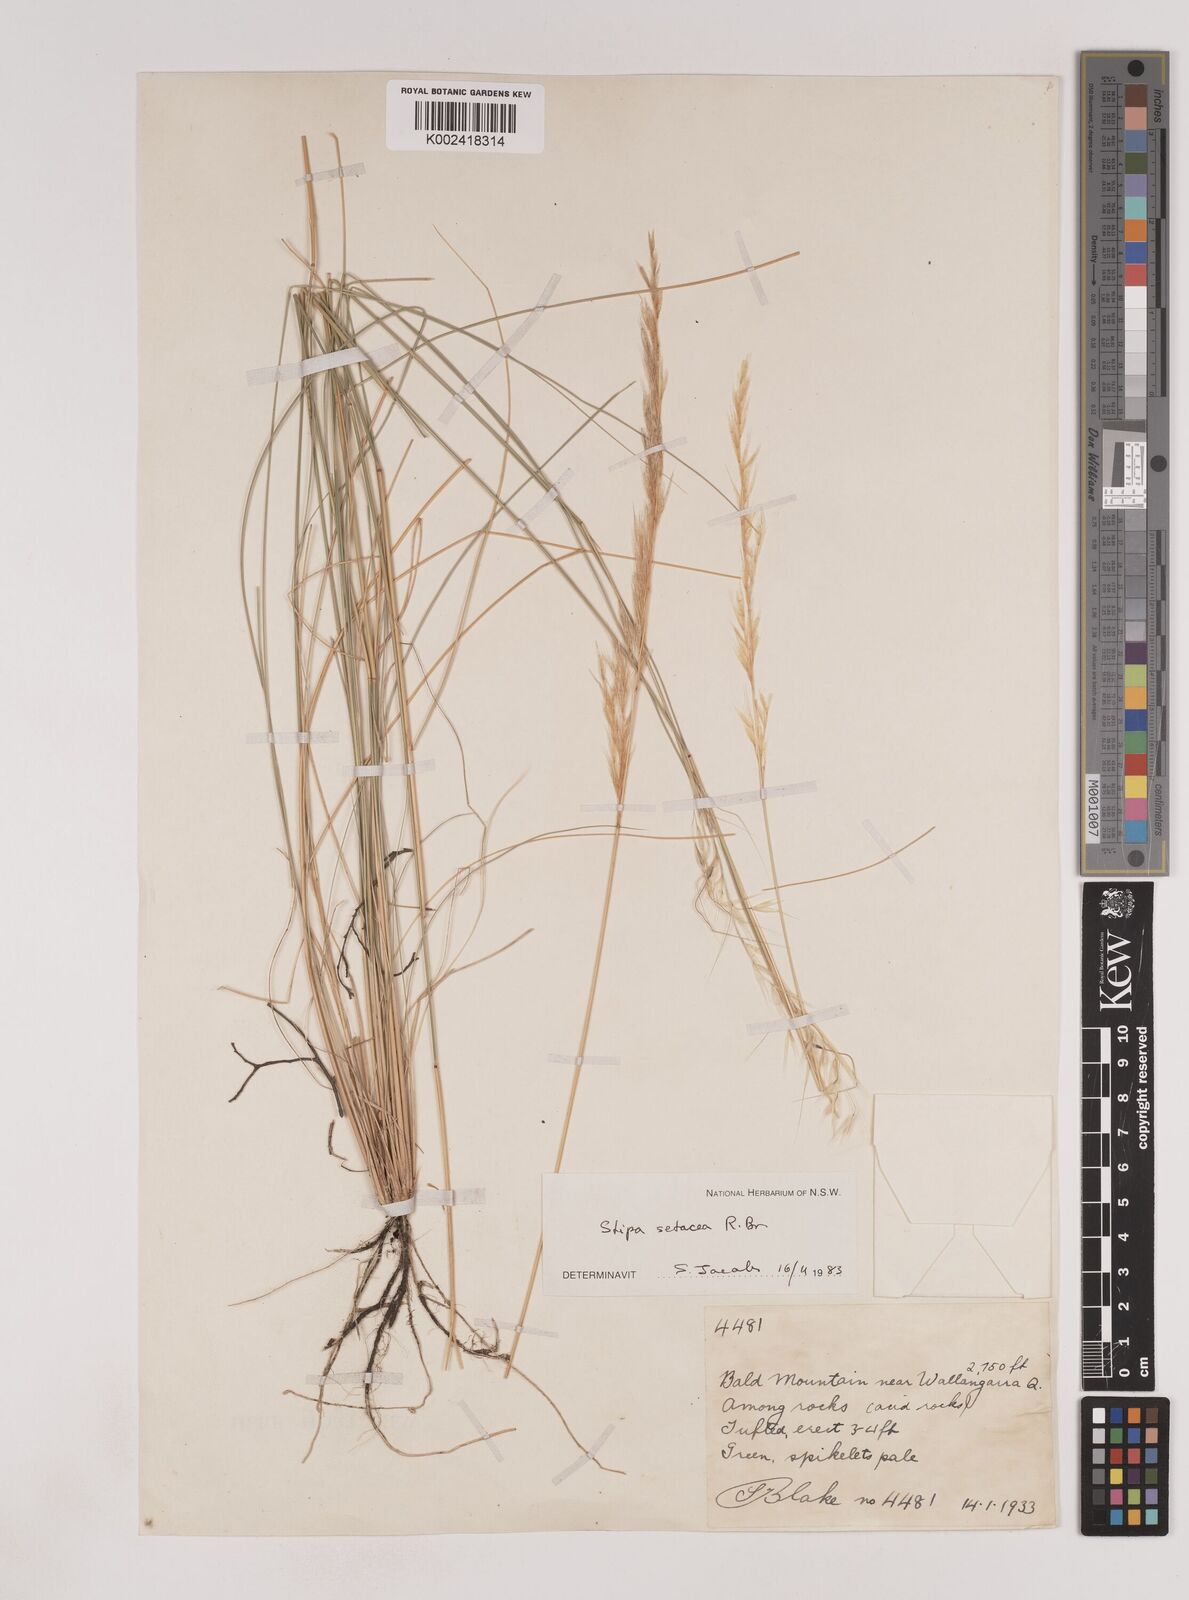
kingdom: Plantae
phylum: Tracheophyta
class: Liliopsida
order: Poales
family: Poaceae
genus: Piptochaetium
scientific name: Piptochaetium
